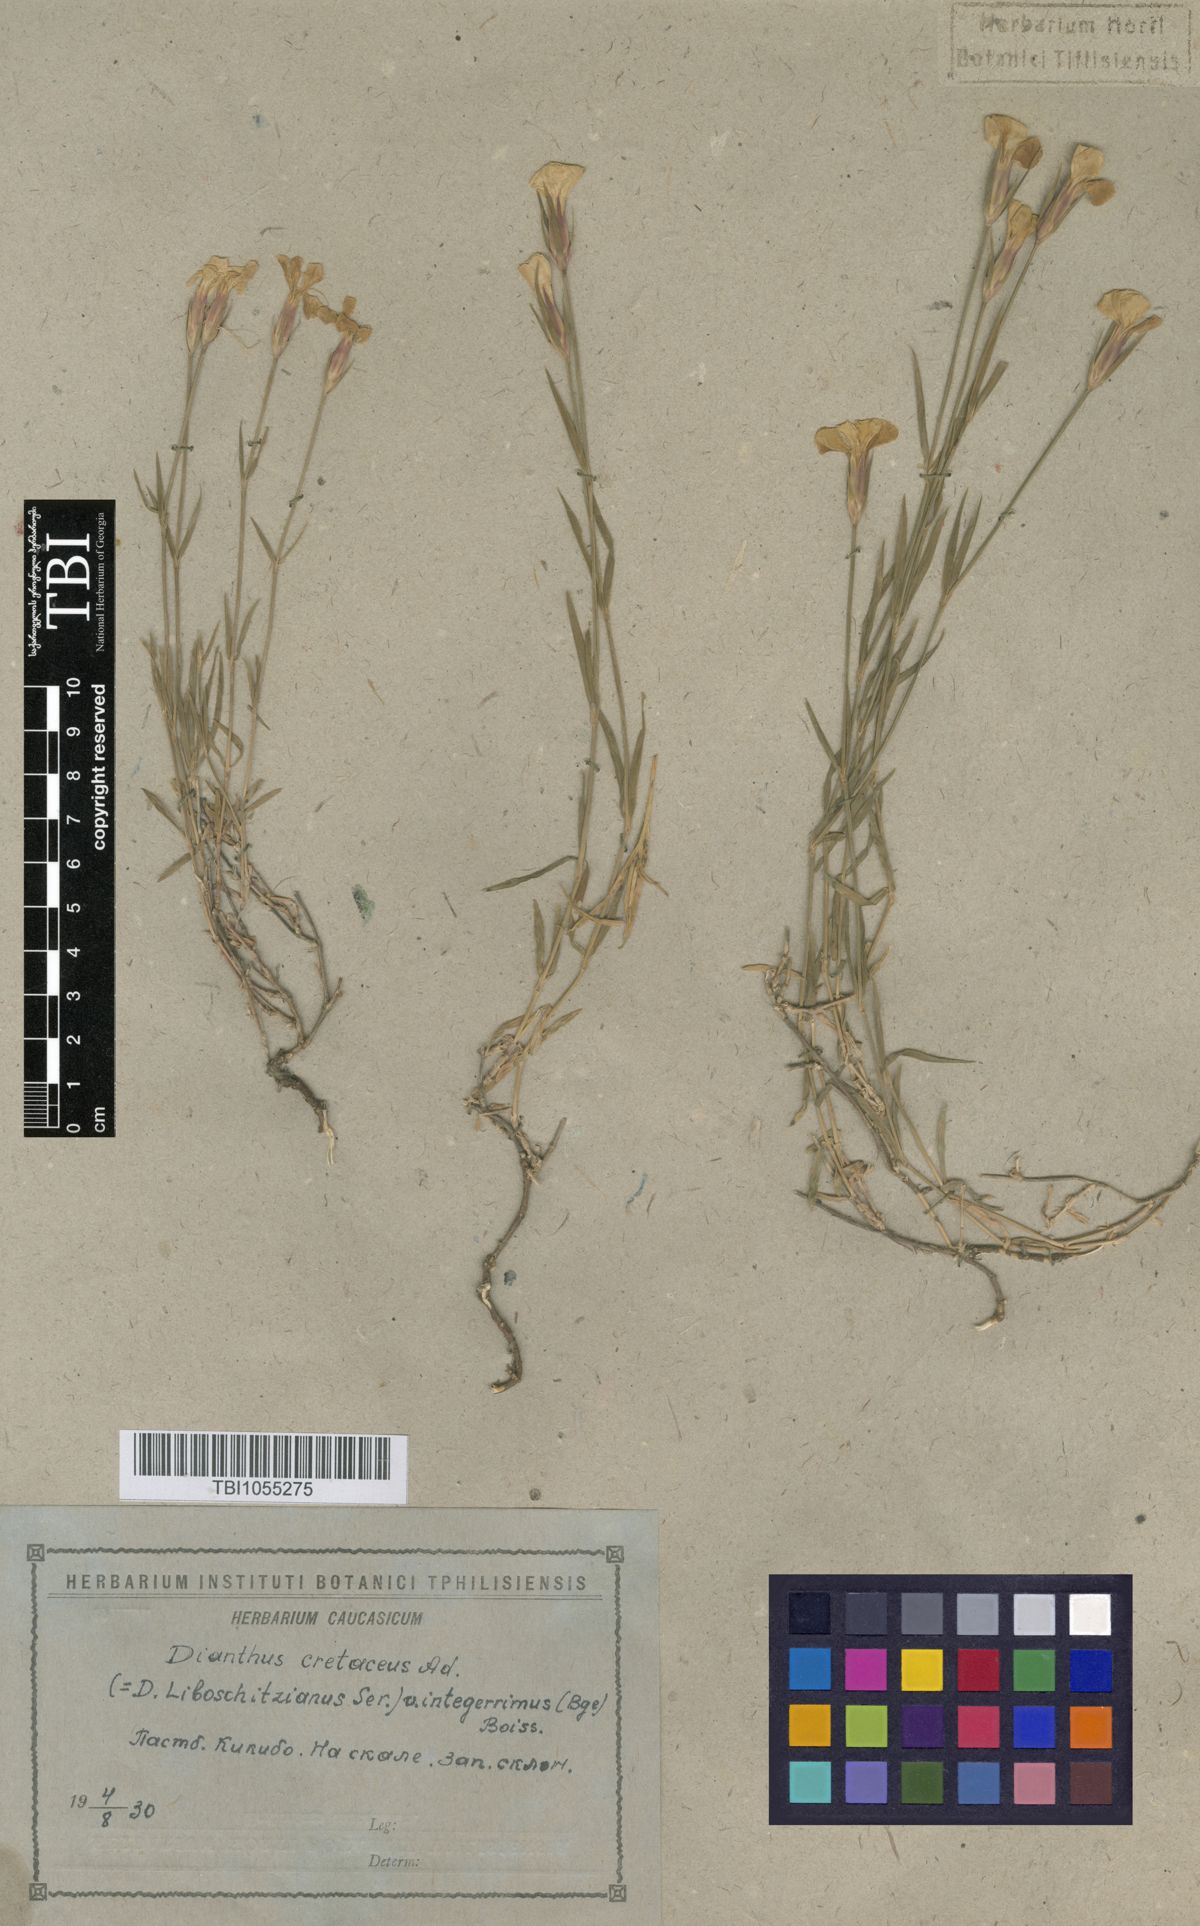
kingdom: Plantae
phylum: Tracheophyta
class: Magnoliopsida
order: Caryophyllales
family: Caryophyllaceae
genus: Dianthus
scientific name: Dianthus cretaceus
